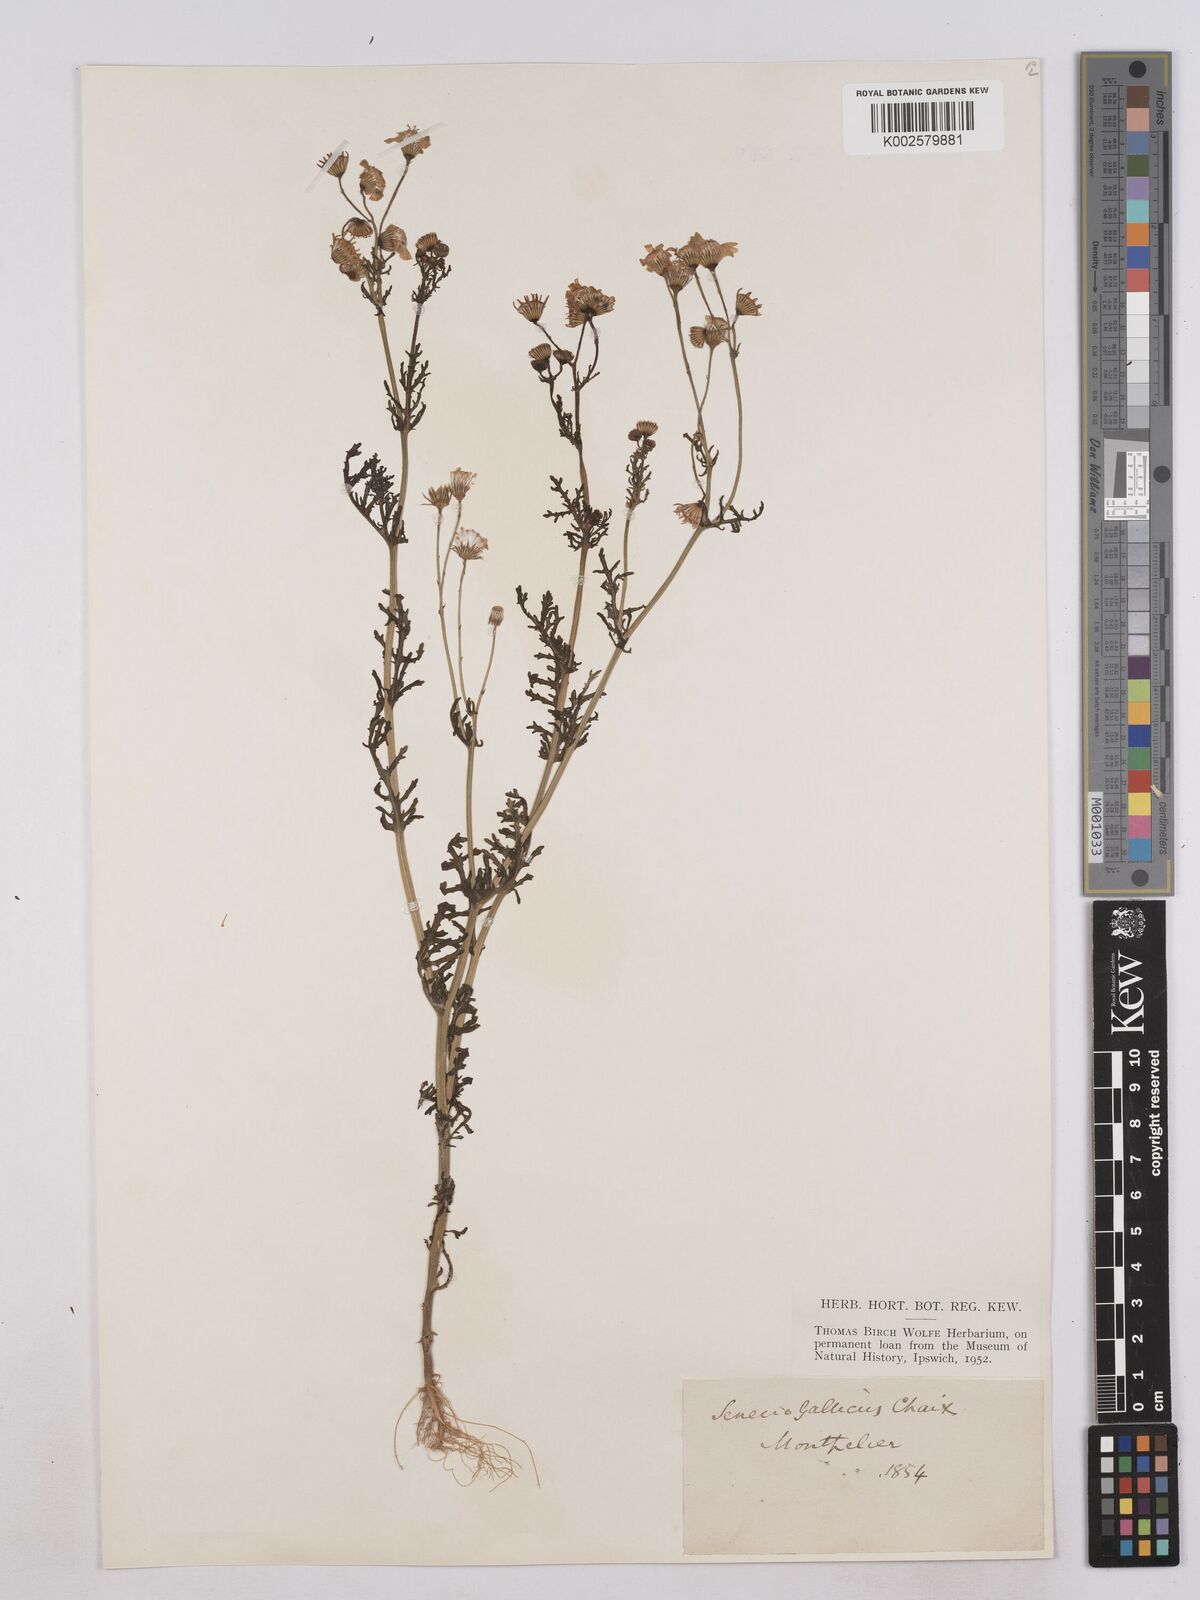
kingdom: Plantae
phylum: Tracheophyta
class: Magnoliopsida
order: Asterales
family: Asteraceae
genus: Senecio
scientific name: Senecio gallicus
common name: French groundsel
